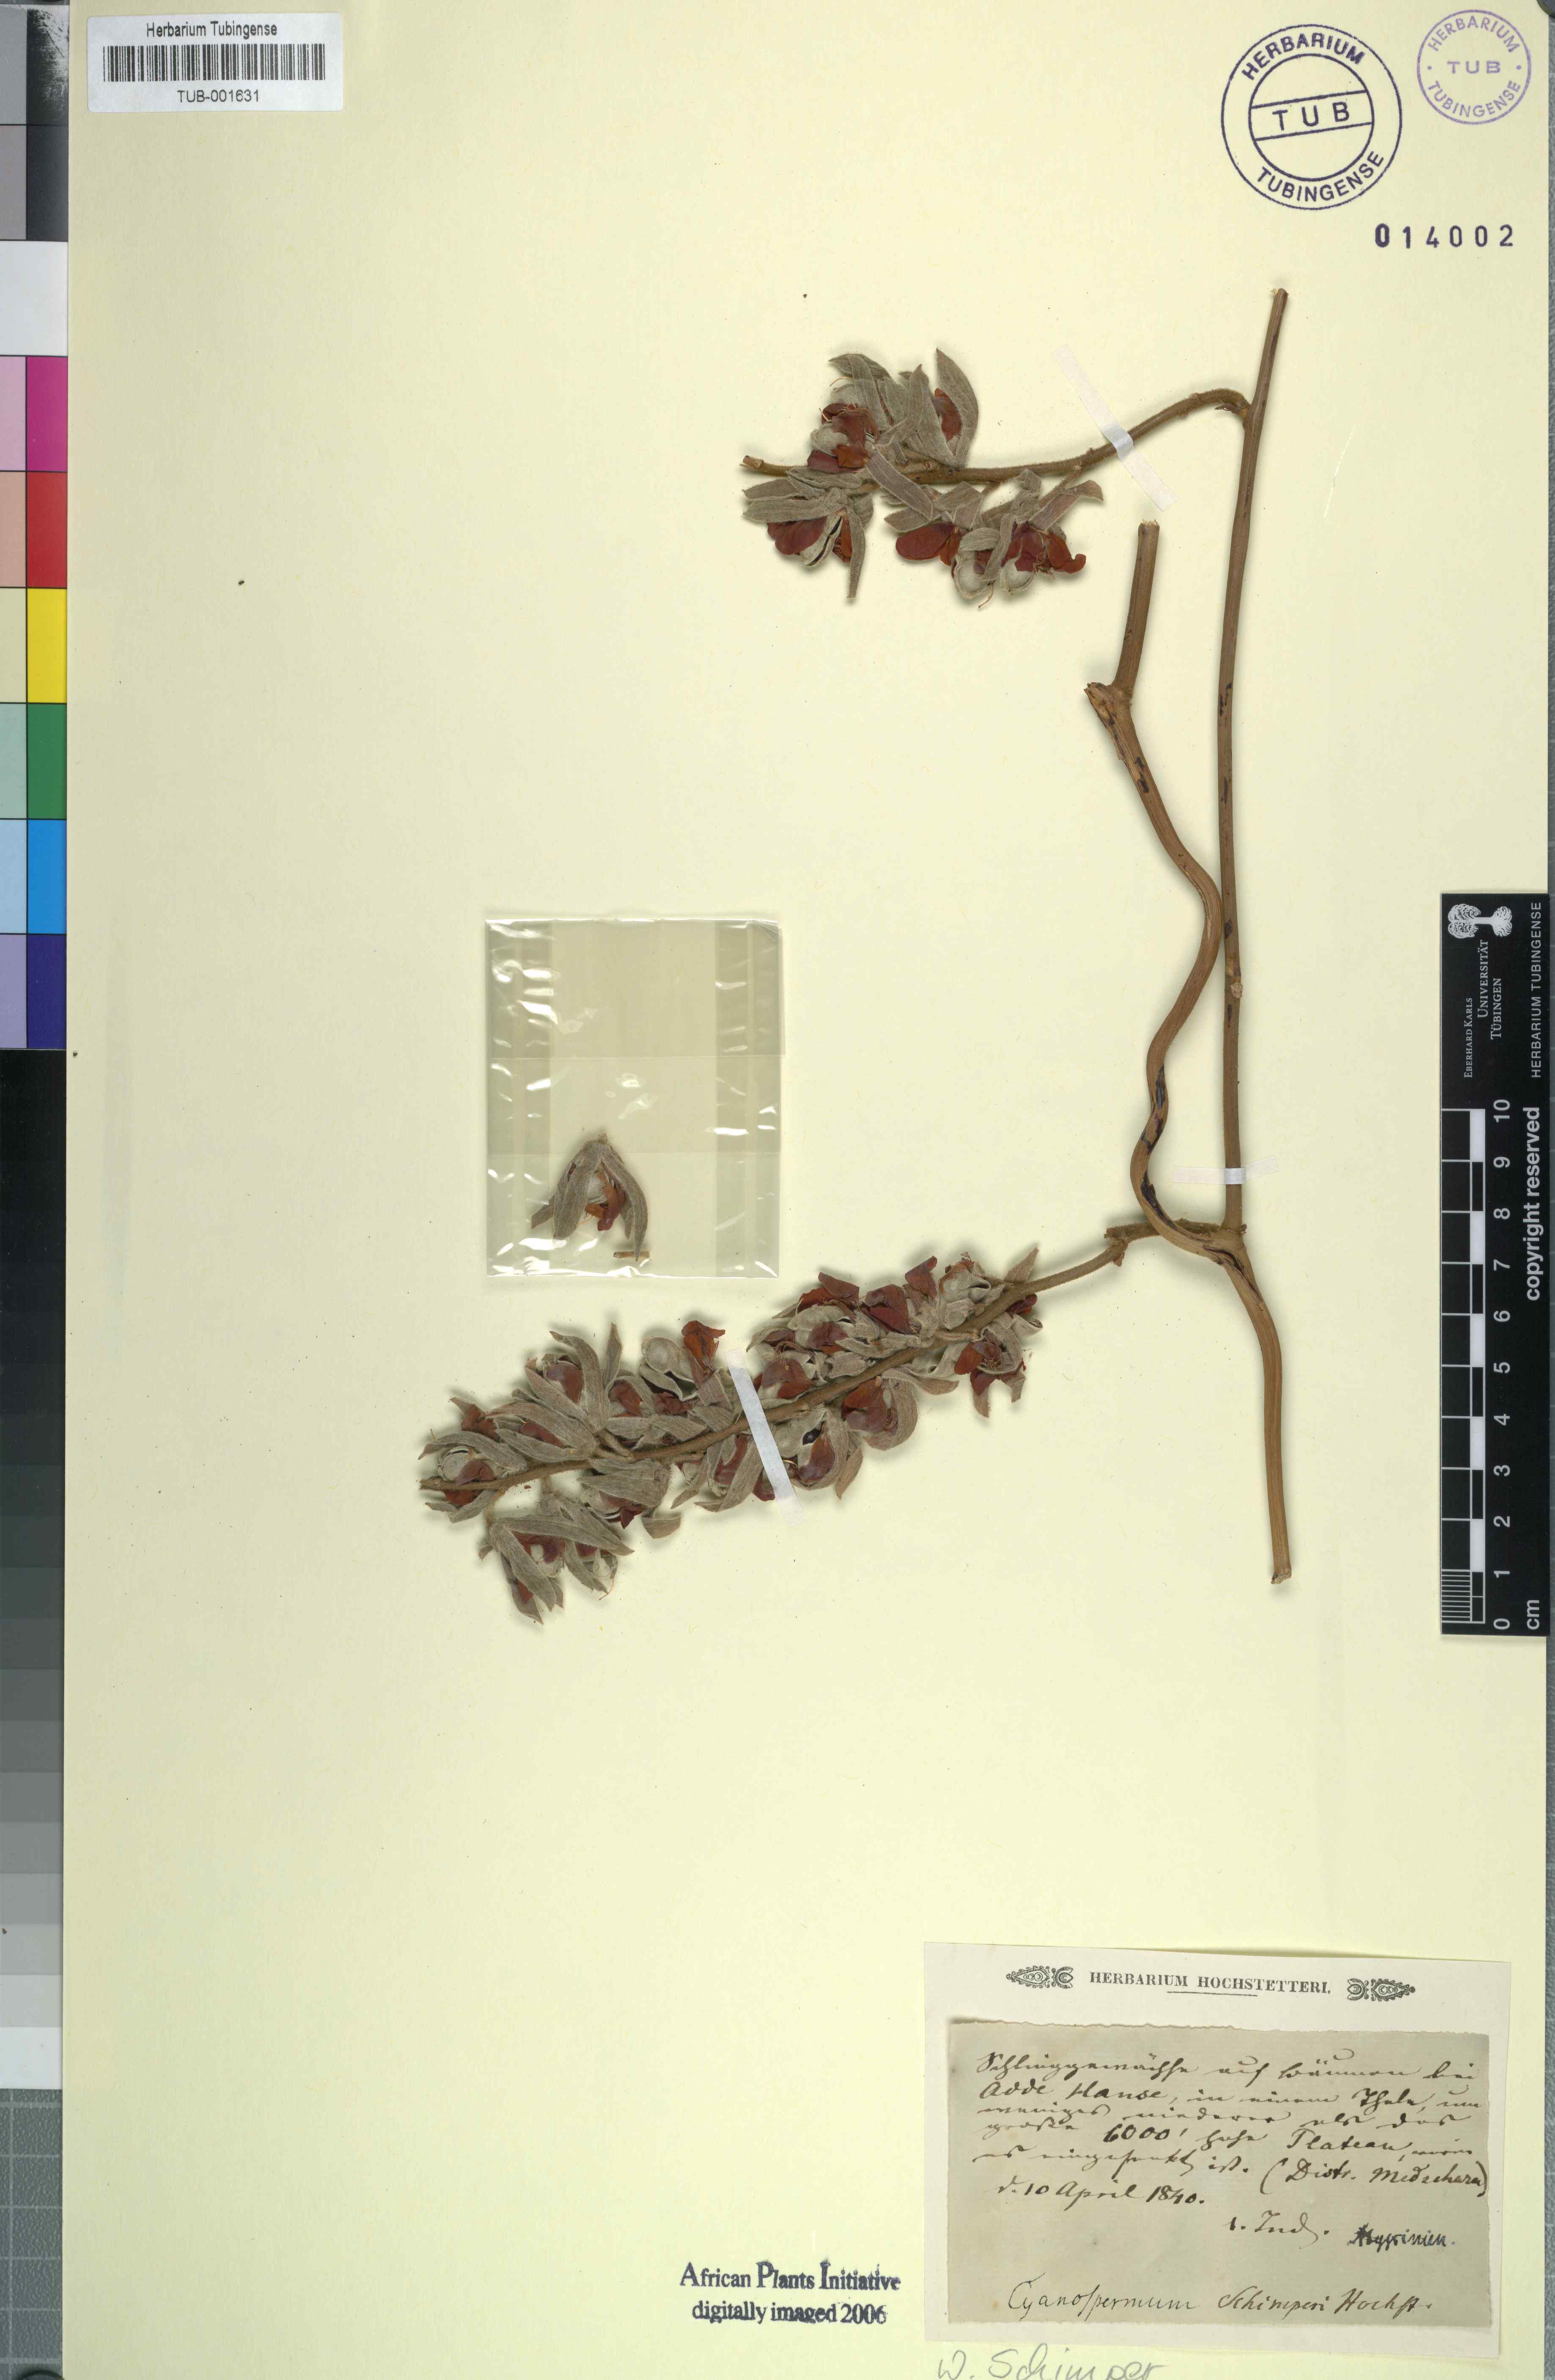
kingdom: Plantae
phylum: Tracheophyta
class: Magnoliopsida
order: Fabales
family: Fabaceae
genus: Rhynchosia
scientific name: Rhynchosia
